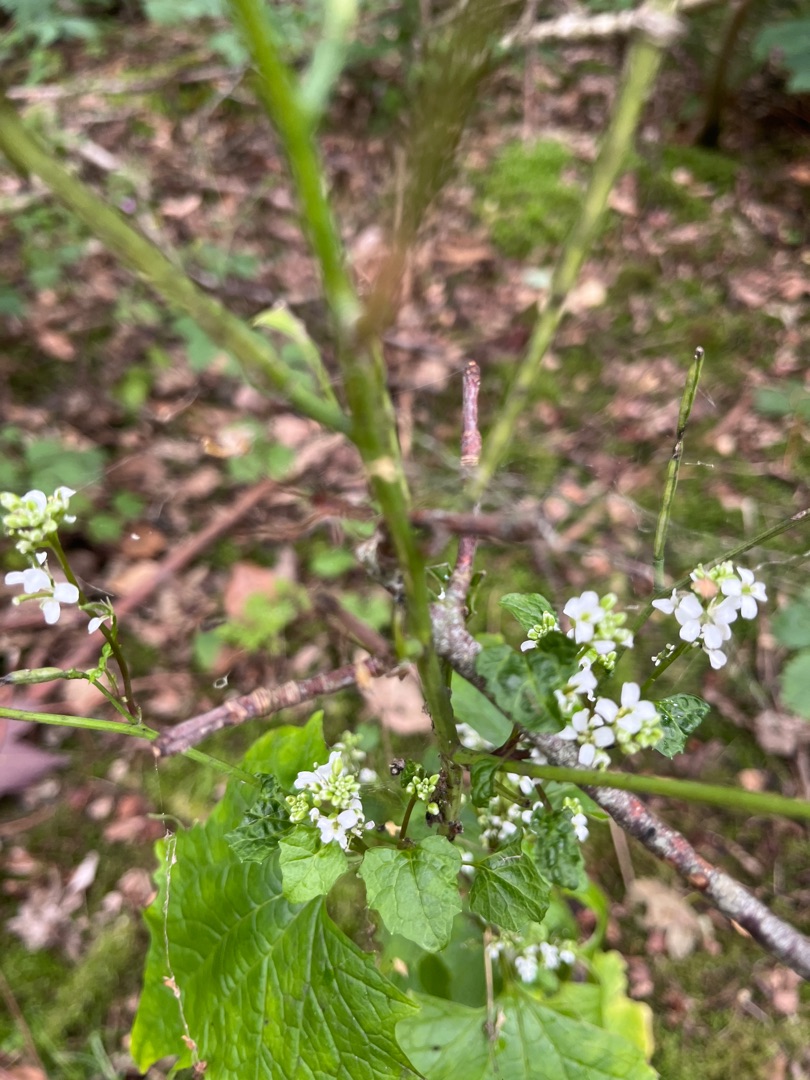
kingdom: Plantae
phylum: Tracheophyta
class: Magnoliopsida
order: Brassicales
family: Brassicaceae
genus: Alliaria
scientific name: Alliaria petiolata
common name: Løgkarse
